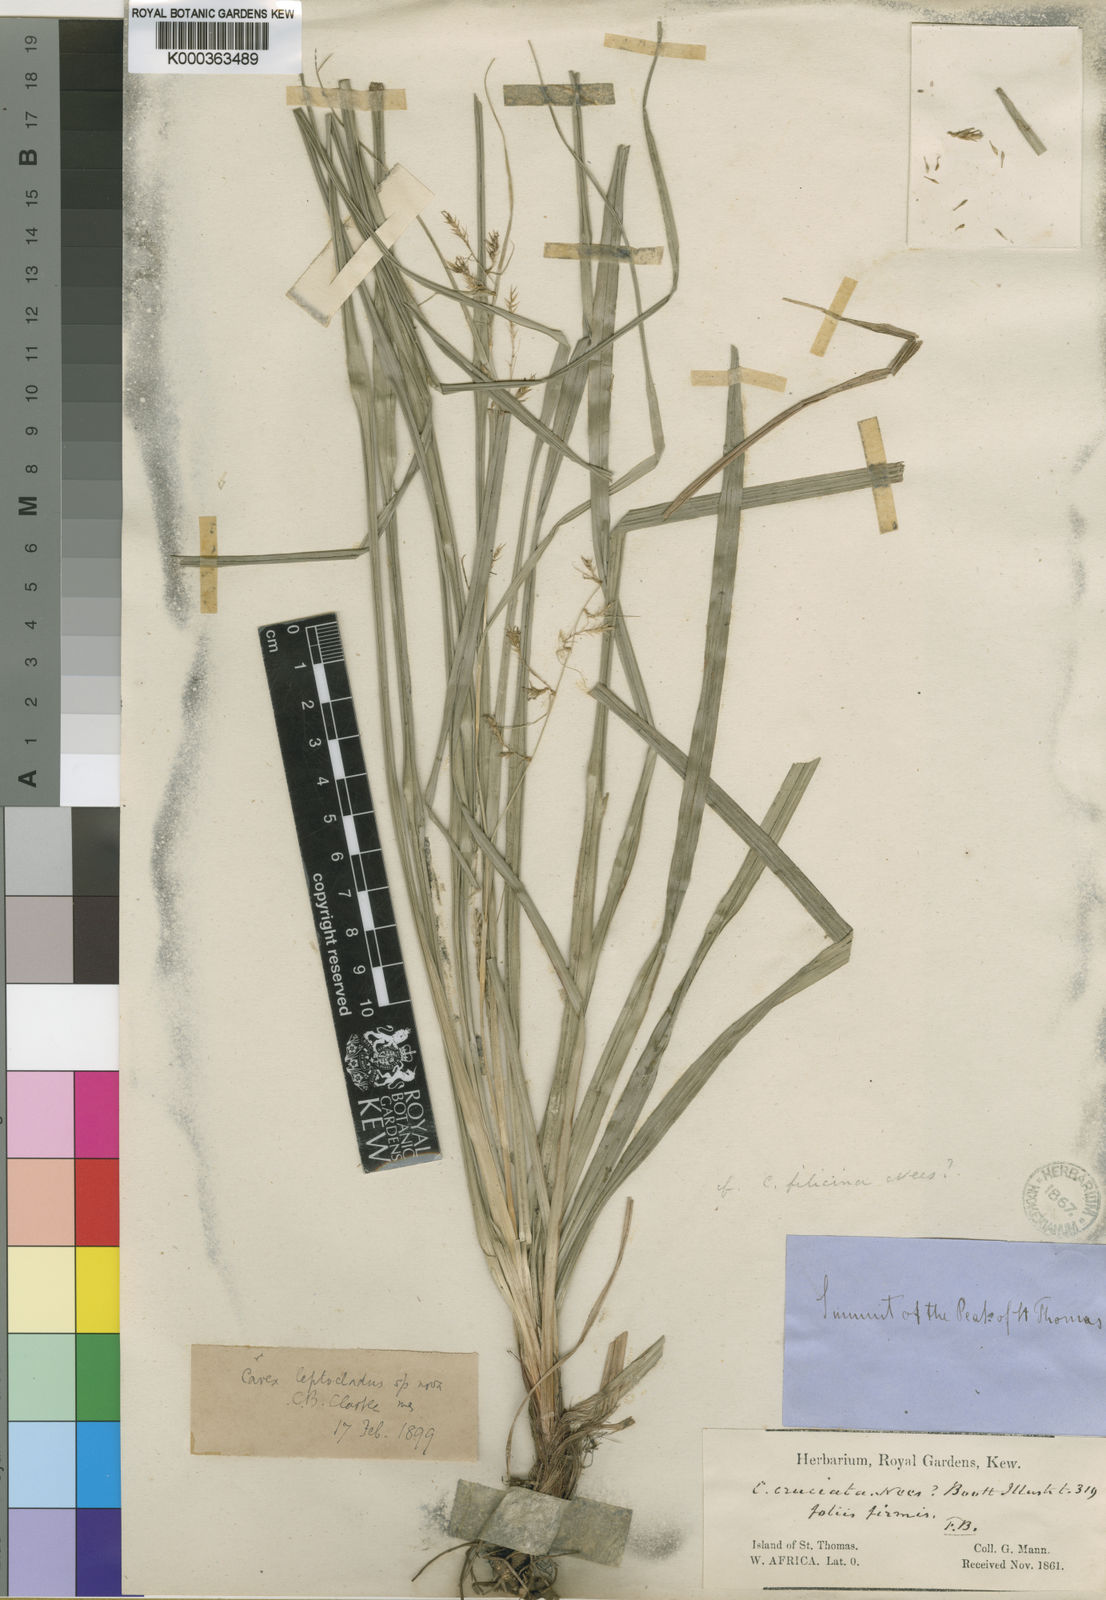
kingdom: Plantae
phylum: Tracheophyta
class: Liliopsida
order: Poales
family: Cyperaceae
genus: Carex
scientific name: Carex chlorosaccus
